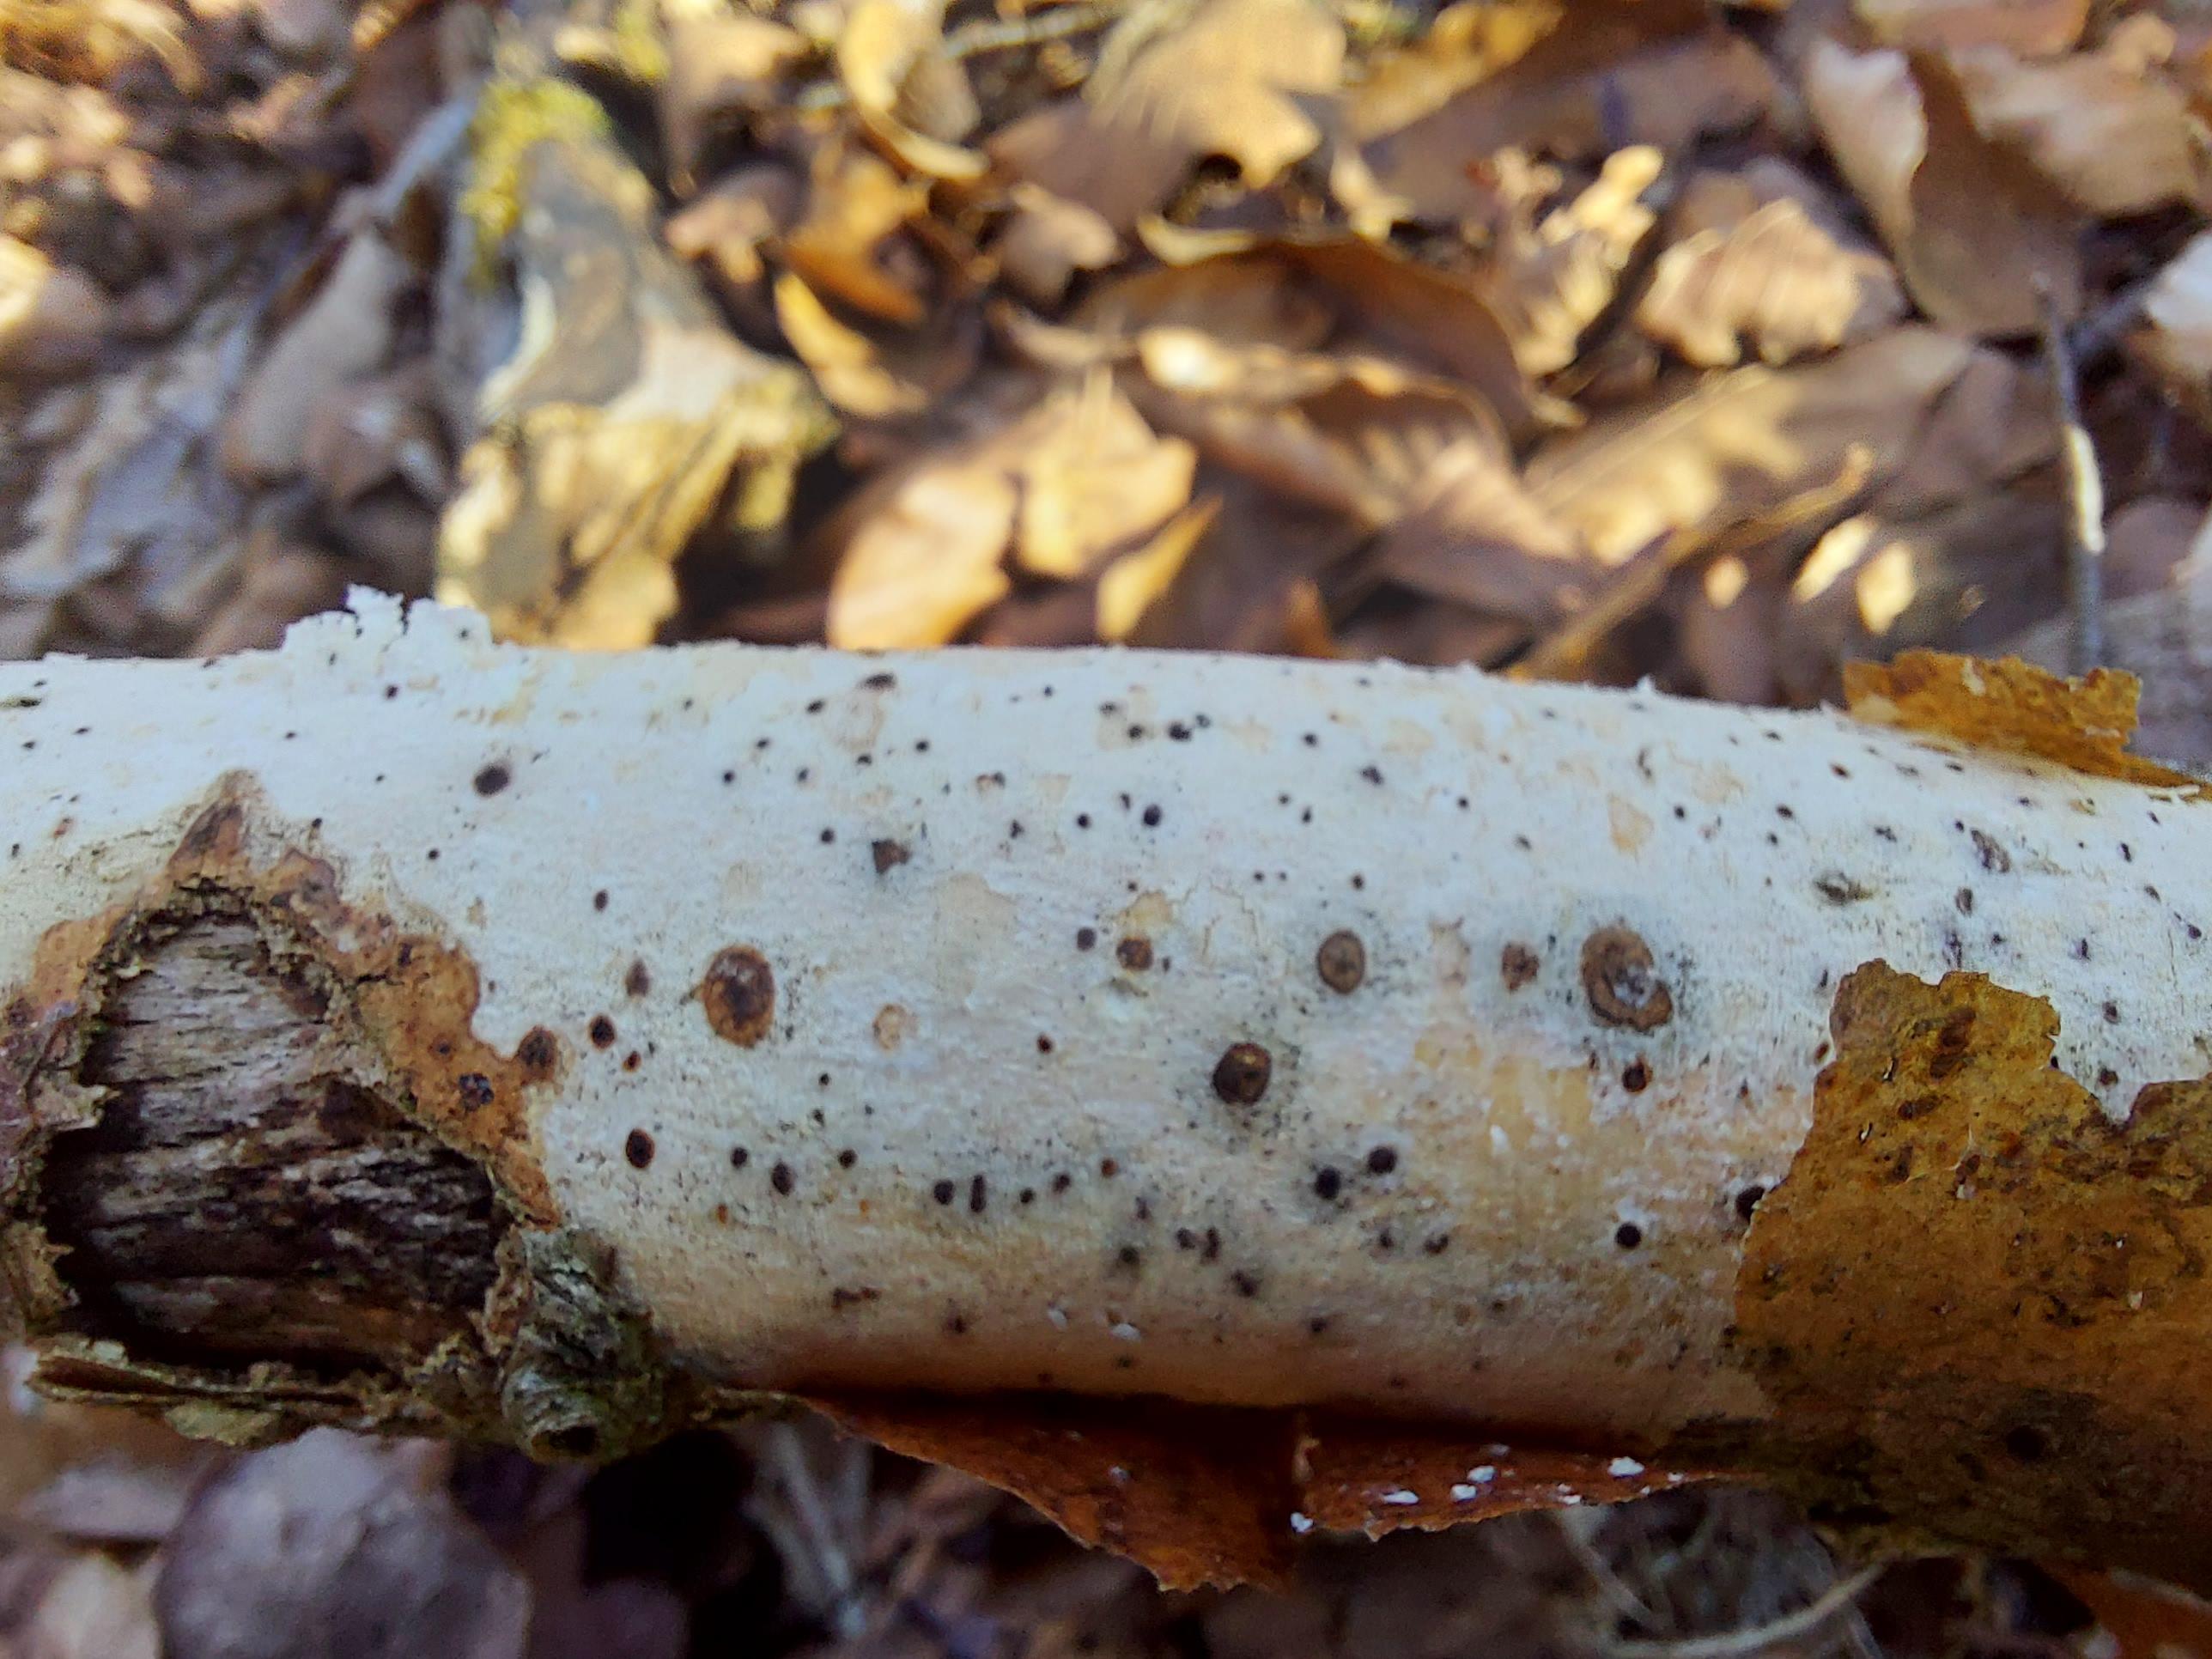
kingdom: Fungi
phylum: Basidiomycota
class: Agaricomycetes
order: Corticiales
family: Corticiaceae
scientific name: Corticiaceae
